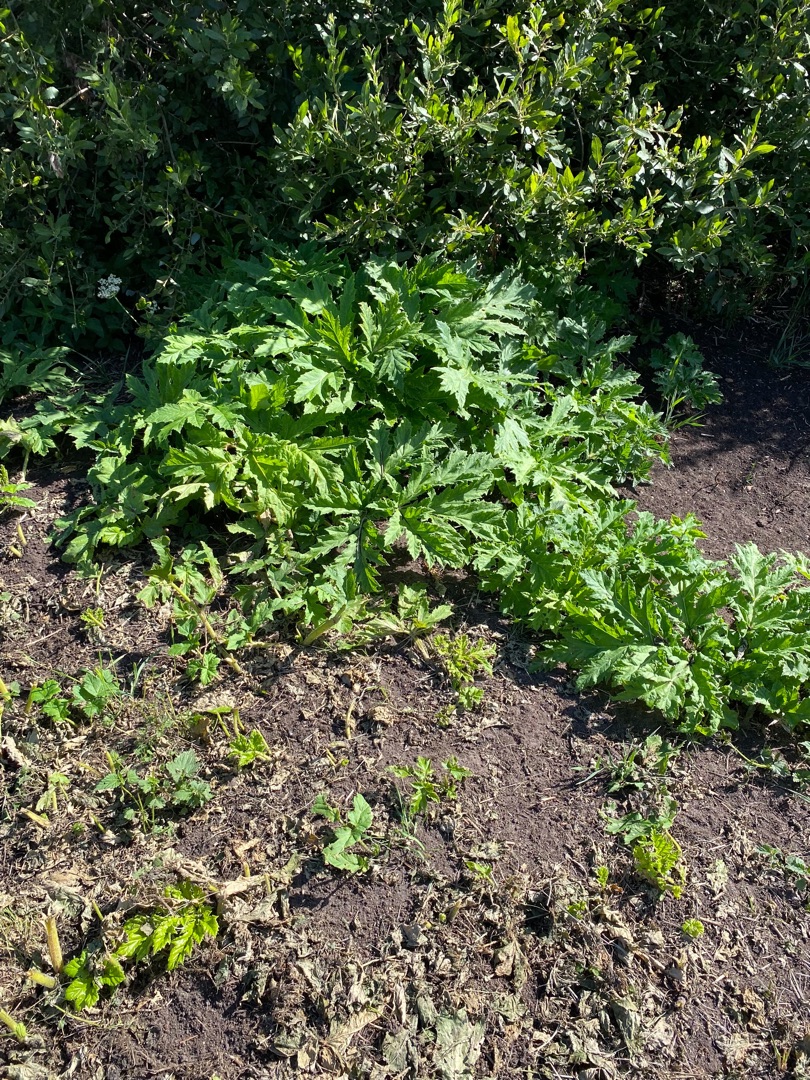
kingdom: Plantae
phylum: Tracheophyta
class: Magnoliopsida
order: Apiales
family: Apiaceae
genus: Heracleum
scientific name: Heracleum mantegazzianum
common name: Kæmpe-bjørneklo
